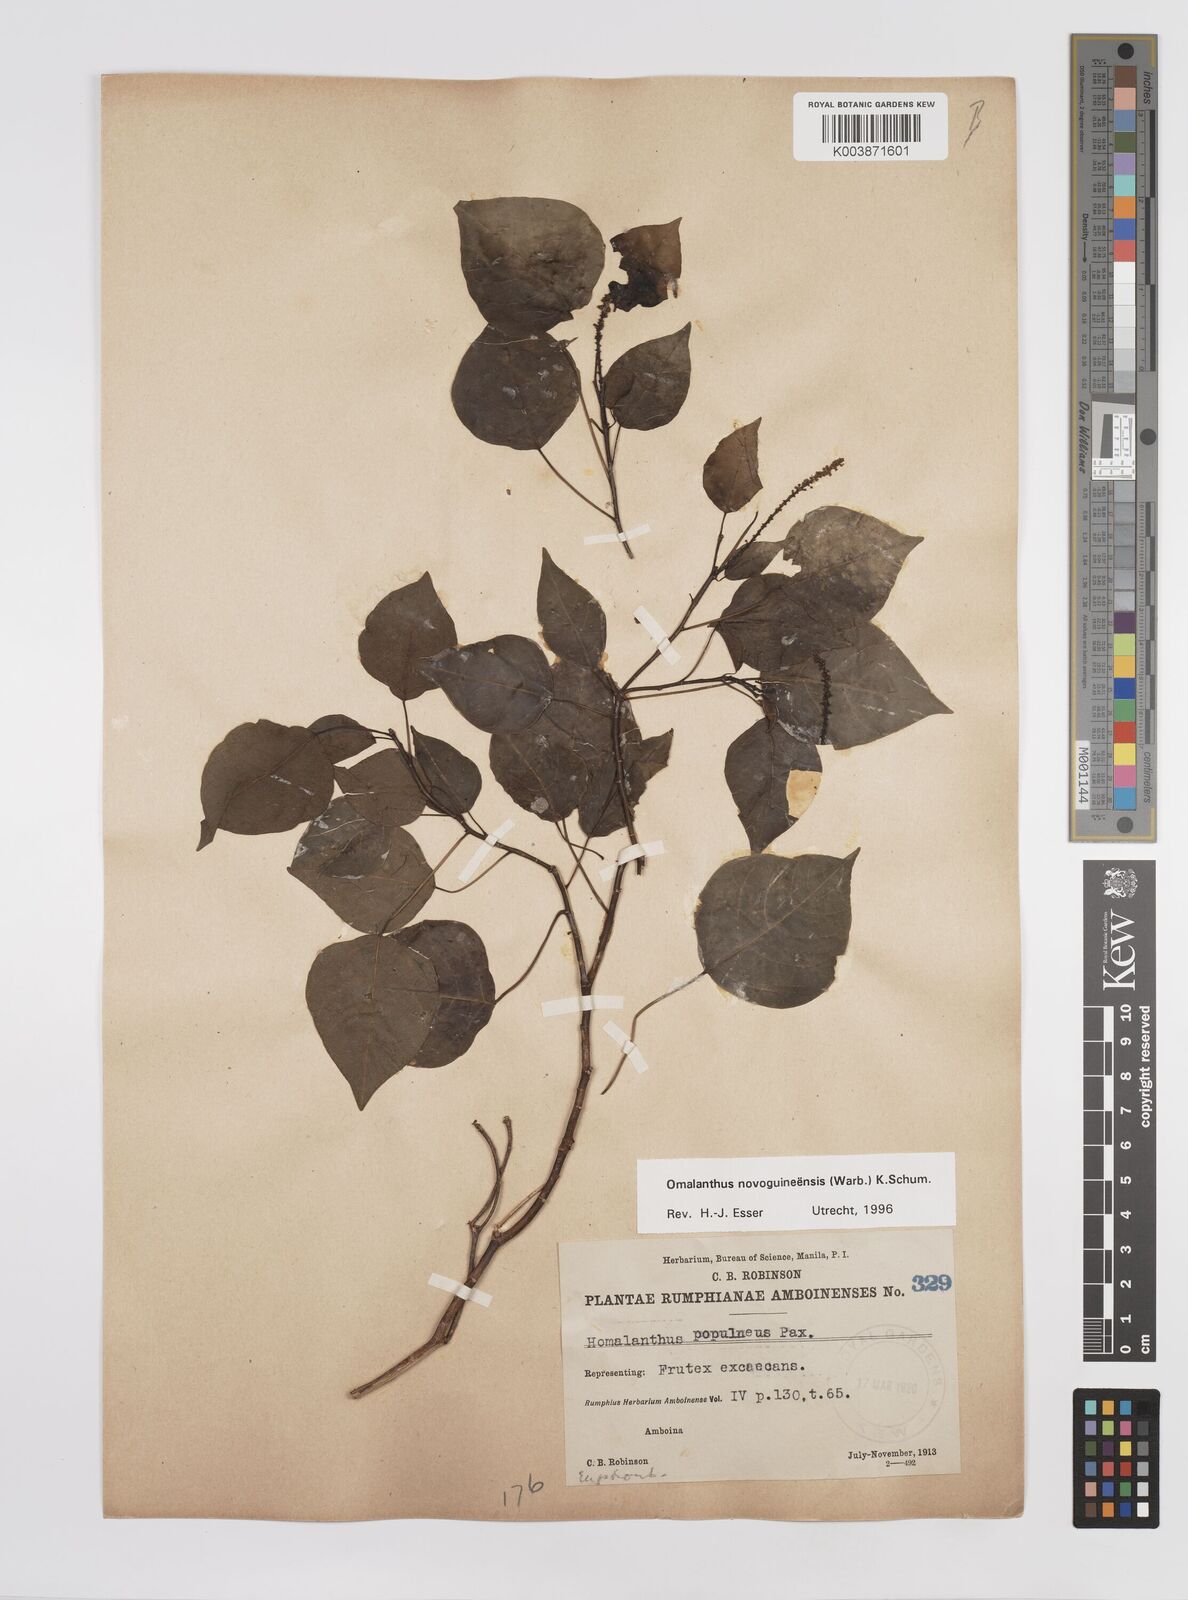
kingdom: Plantae
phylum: Tracheophyta
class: Magnoliopsida
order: Malpighiales
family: Euphorbiaceae
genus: Homalanthus
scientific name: Homalanthus novoguineensis
